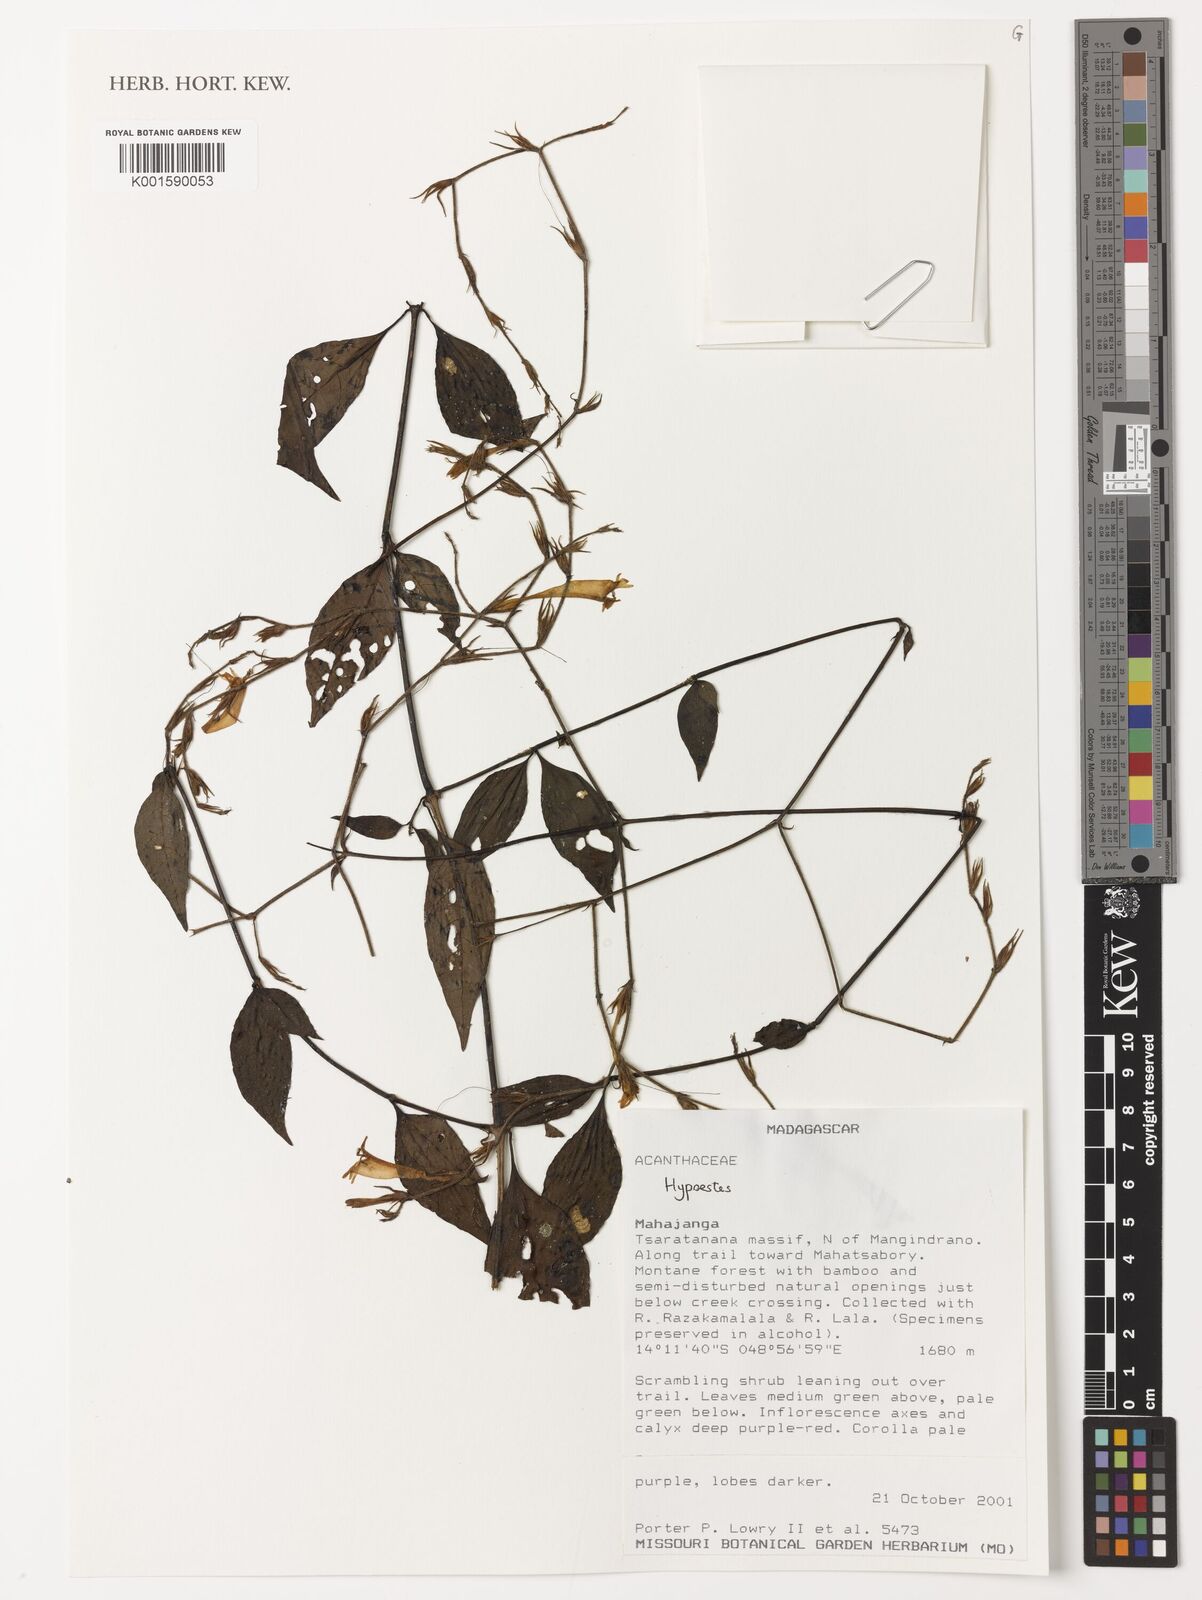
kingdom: Plantae
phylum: Tracheophyta
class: Magnoliopsida
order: Lamiales
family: Acanthaceae
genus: Hypoestes
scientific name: Hypoestes
